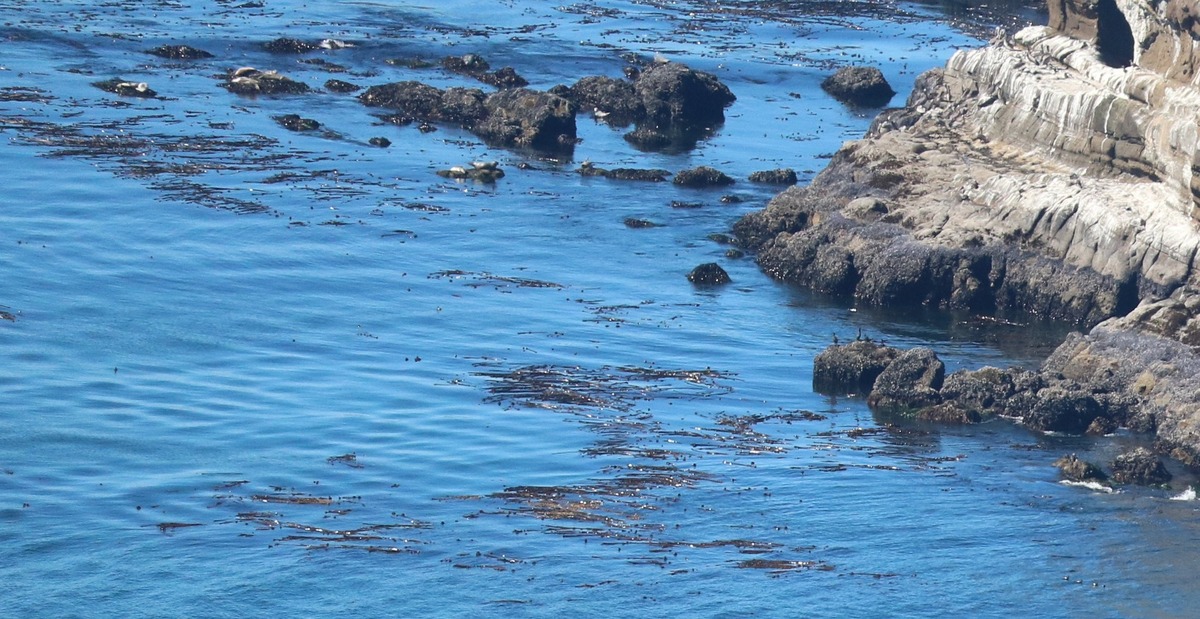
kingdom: Animalia
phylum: Chordata
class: Mammalia
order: Carnivora
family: Phocidae
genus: Phoca
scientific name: Phoca vitulina
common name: Harbor seal
